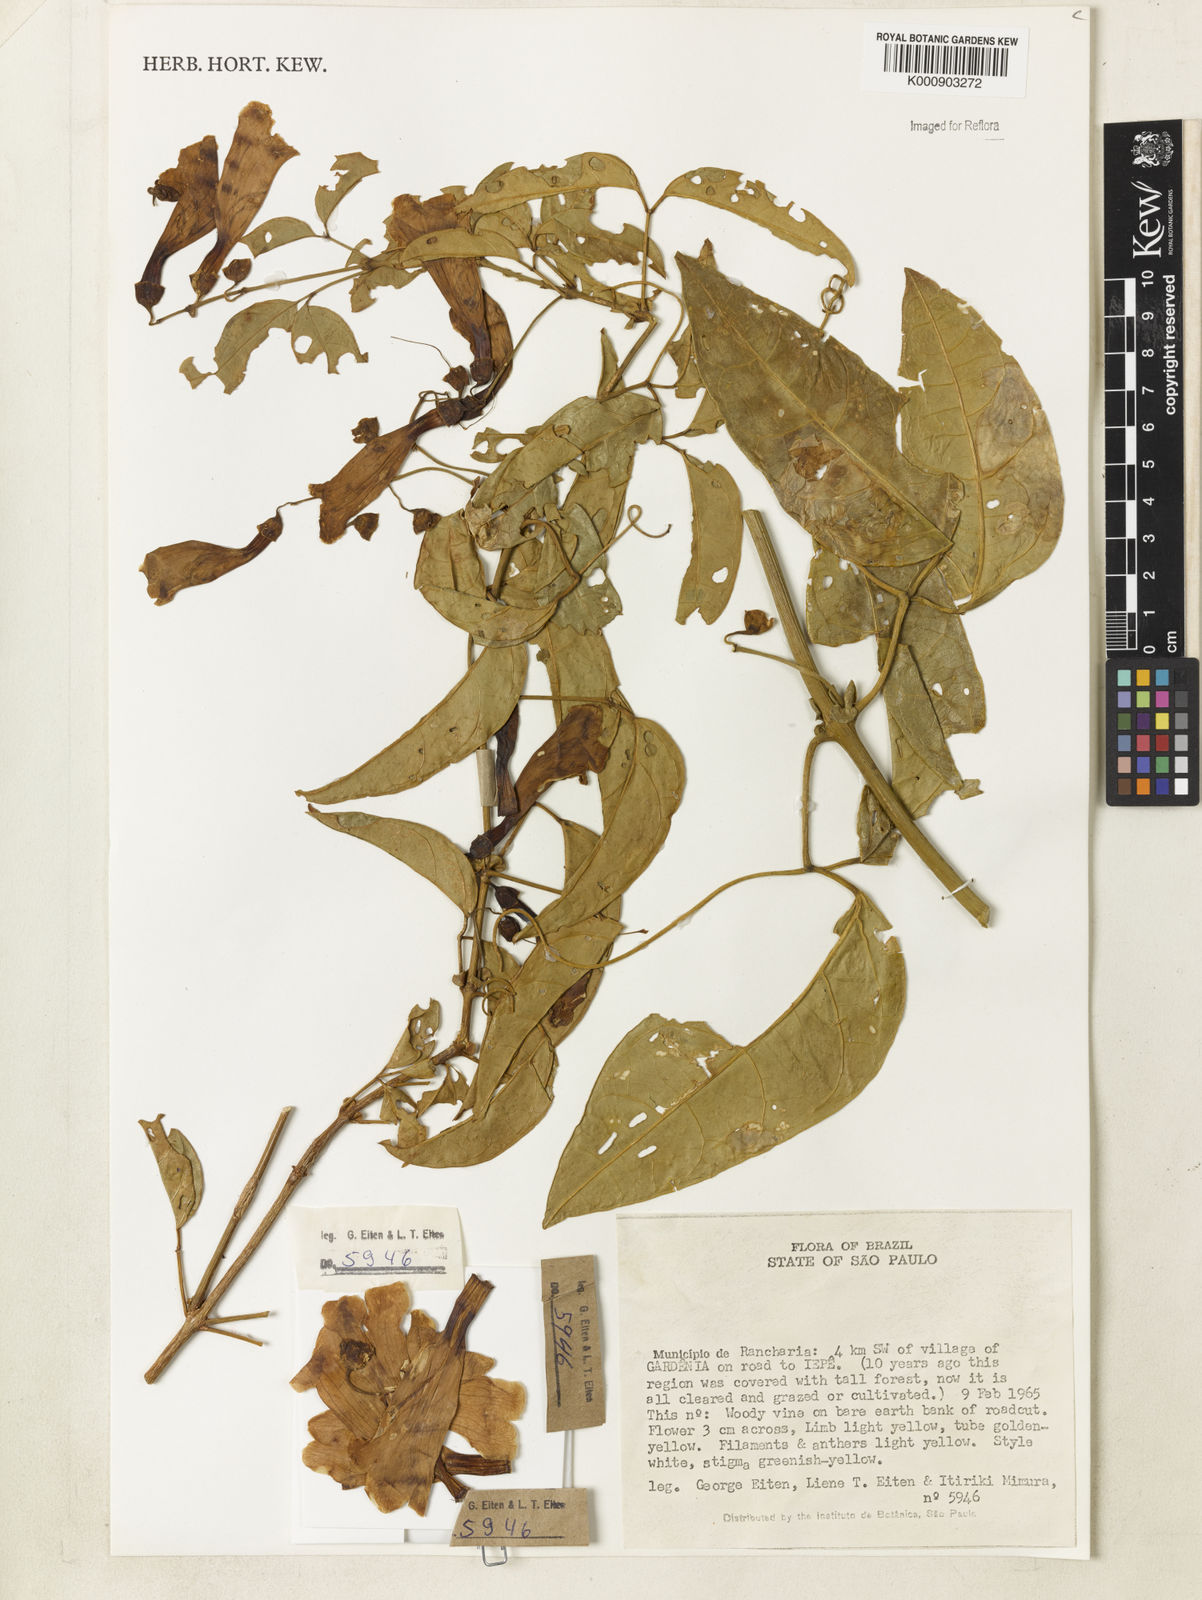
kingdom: Plantae
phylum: Tracheophyta
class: Magnoliopsida
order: Lamiales
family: Bignoniaceae
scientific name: Bignoniaceae
